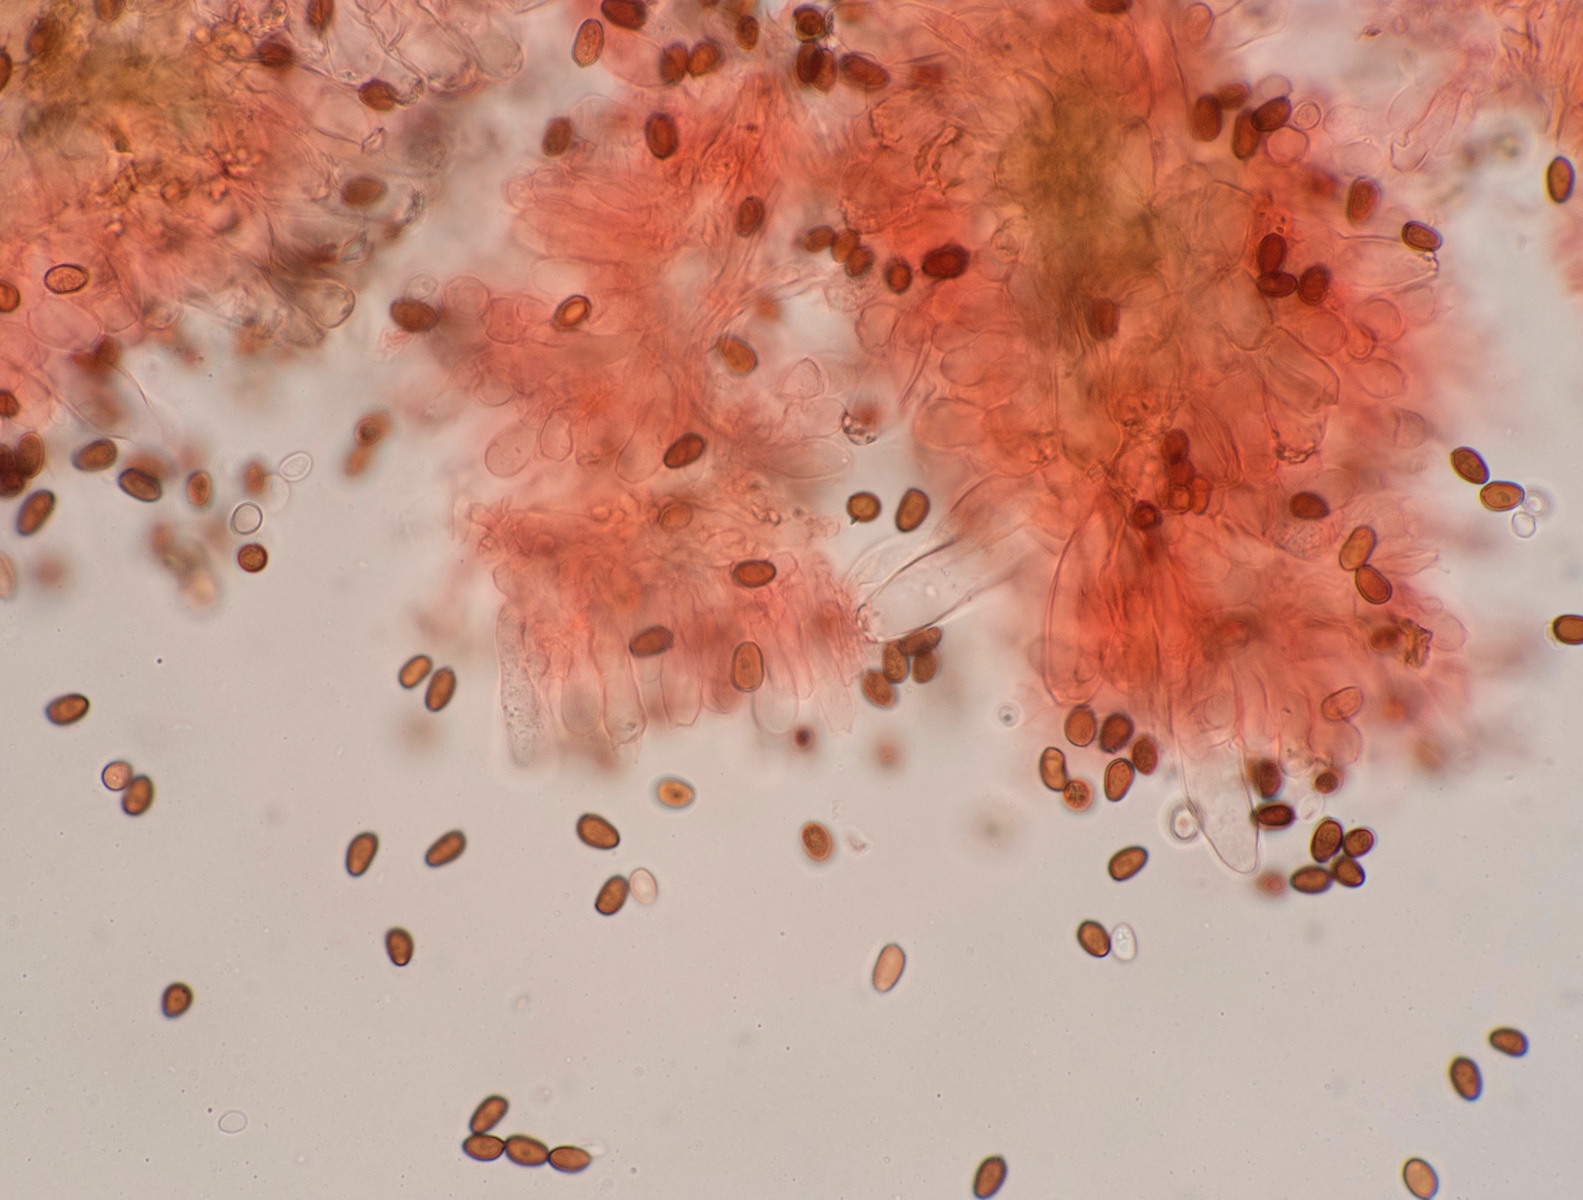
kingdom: Fungi
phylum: Basidiomycota
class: Agaricomycetes
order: Agaricales
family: Psathyrellaceae
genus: Homophron
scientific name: Homophron cernuum
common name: hvidlig mørkhat
